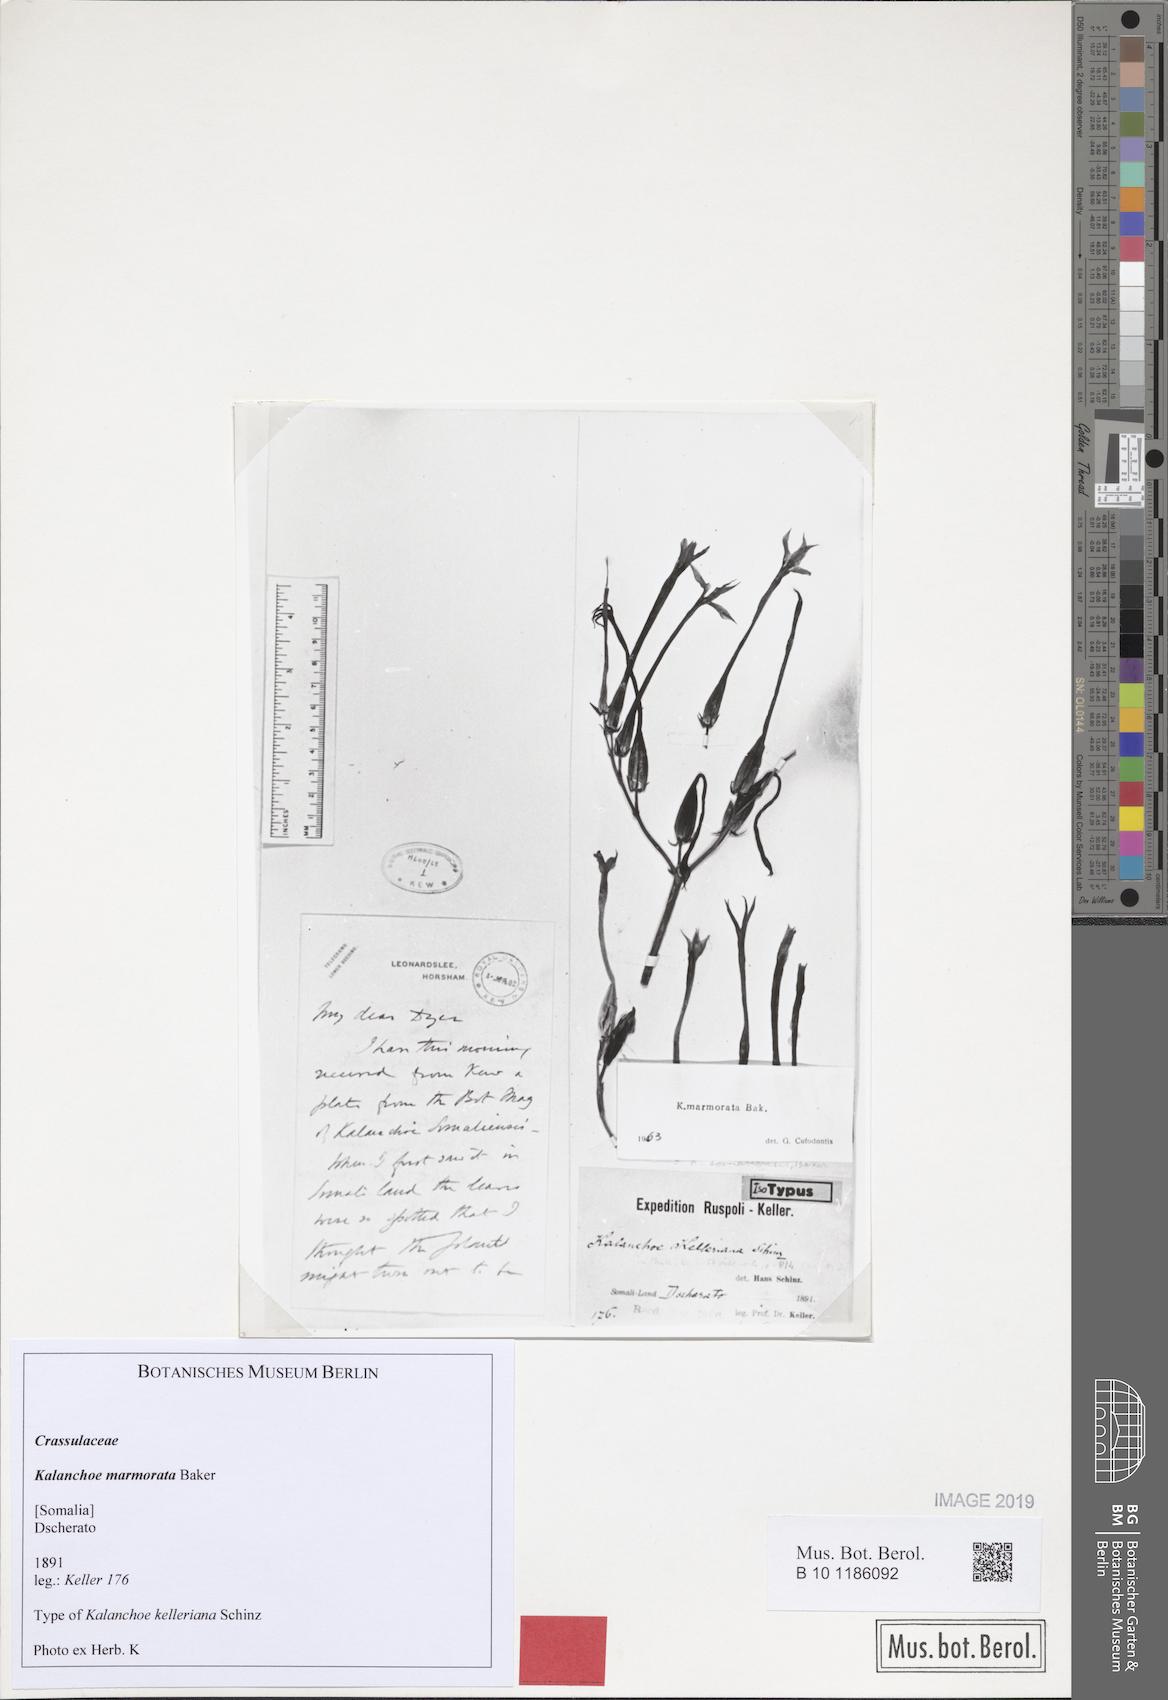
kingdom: Plantae
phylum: Tracheophyta
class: Magnoliopsida
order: Saxifragales
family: Crassulaceae
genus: Kalanchoe
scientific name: Kalanchoe marmorata
